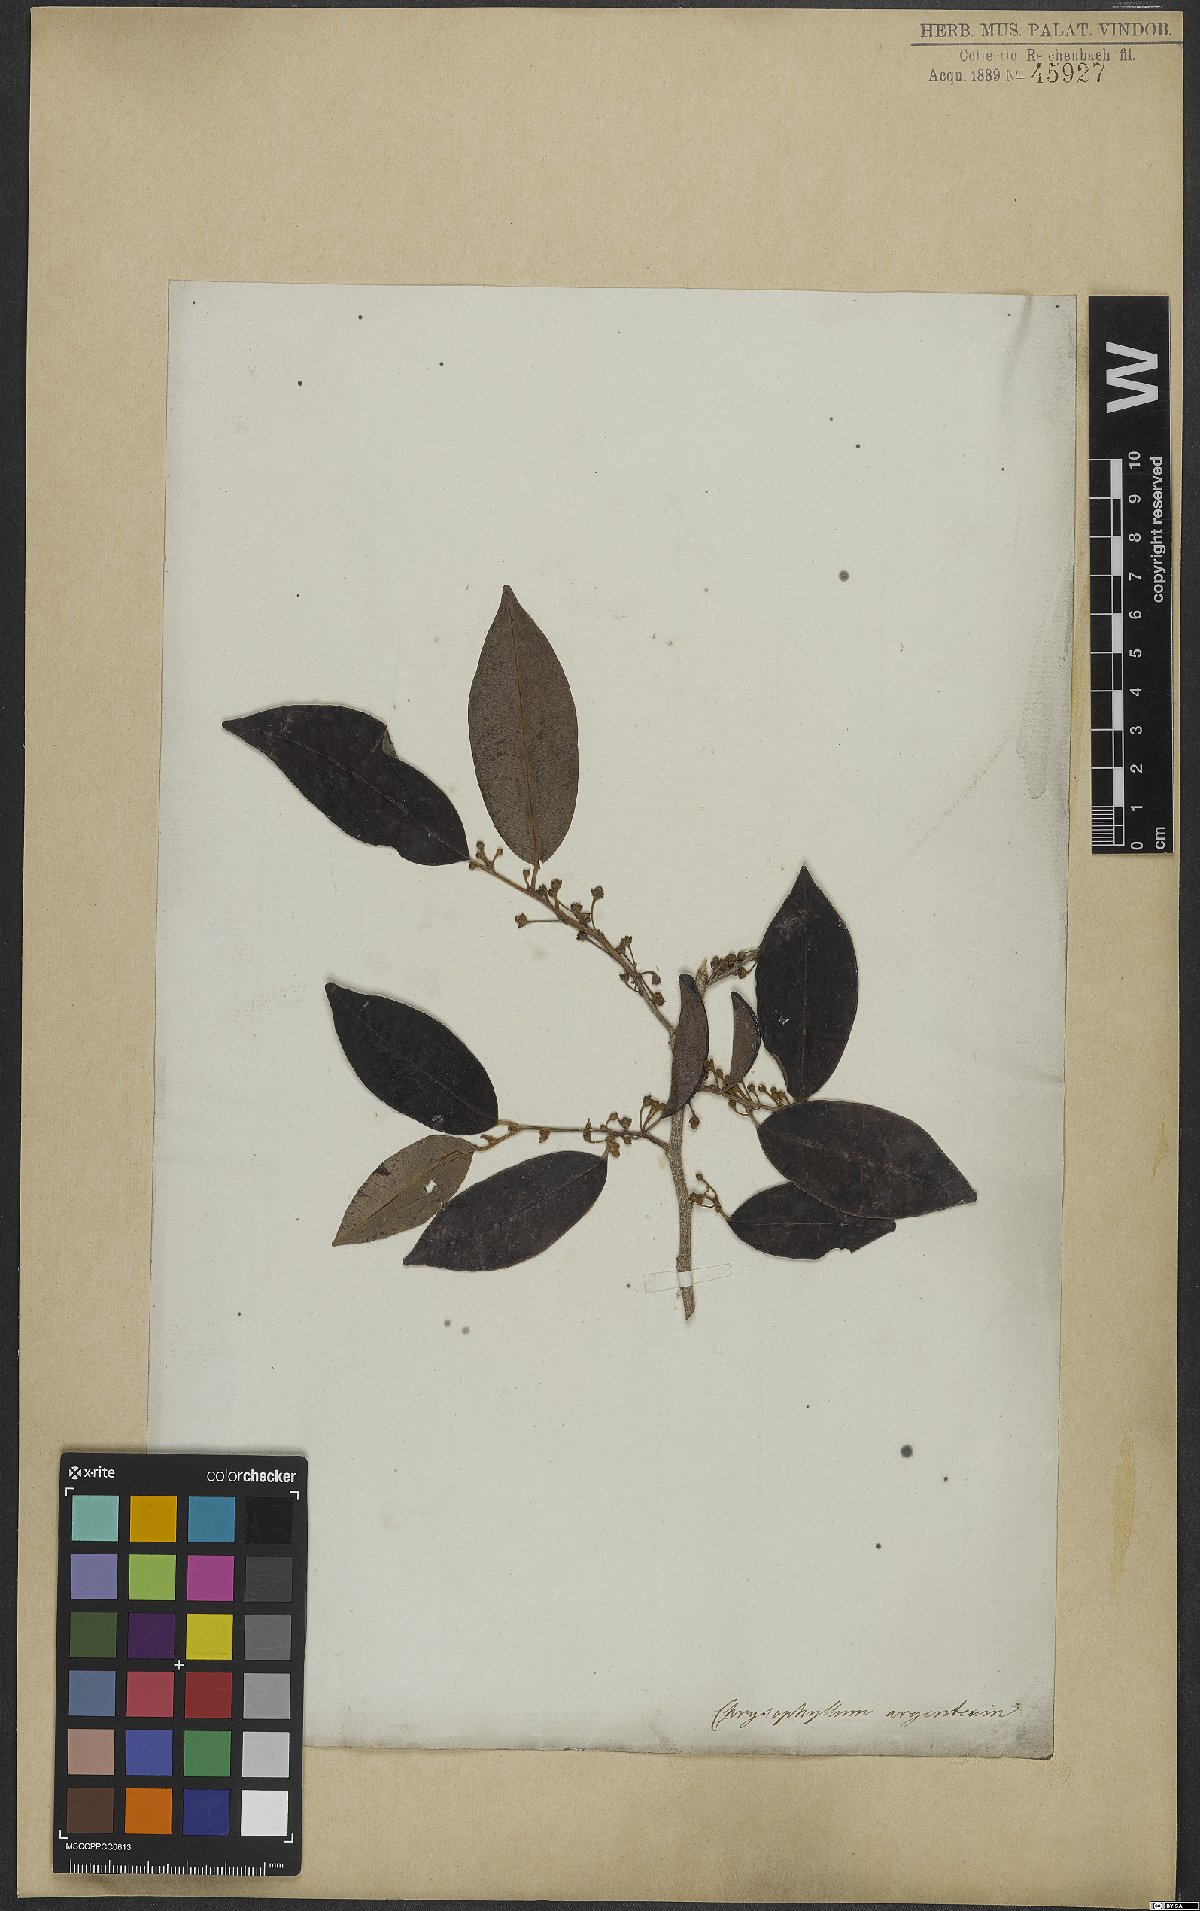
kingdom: Plantae
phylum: Tracheophyta
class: Magnoliopsida
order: Ericales
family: Sapotaceae
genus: Chrysophyllum
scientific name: Chrysophyllum argenteum
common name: Smooth star apple
